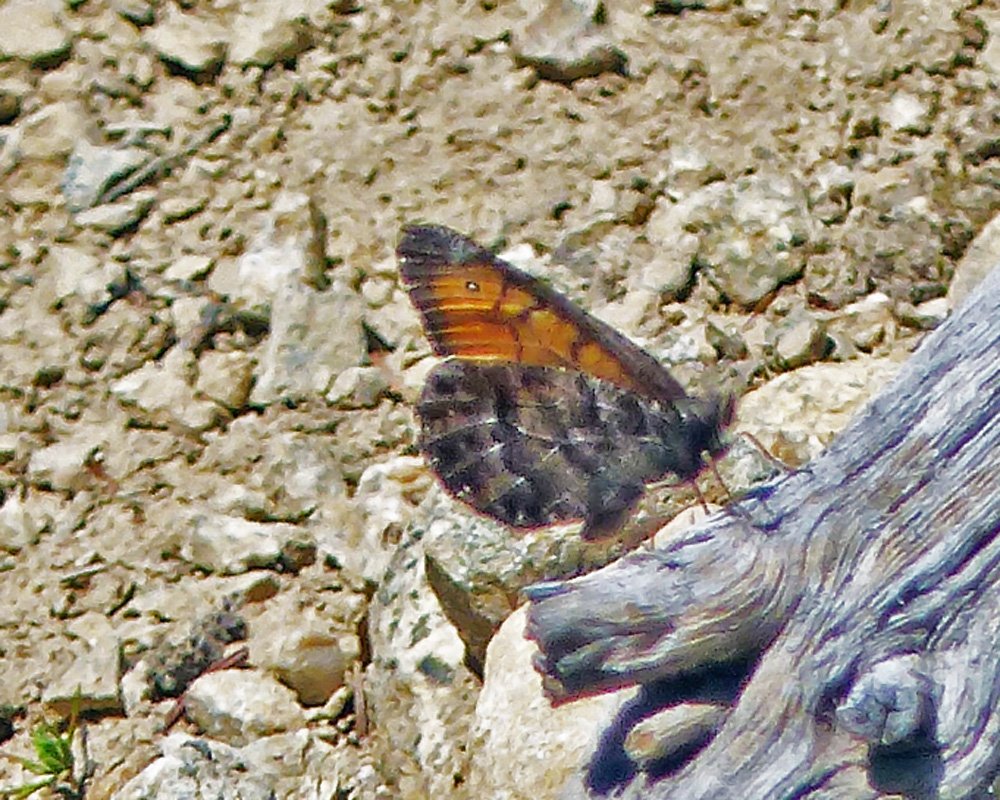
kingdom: Animalia
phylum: Arthropoda
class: Insecta
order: Lepidoptera
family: Nymphalidae
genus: Oeneis
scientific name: Oeneis chryxus
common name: Chryxus Arctic
